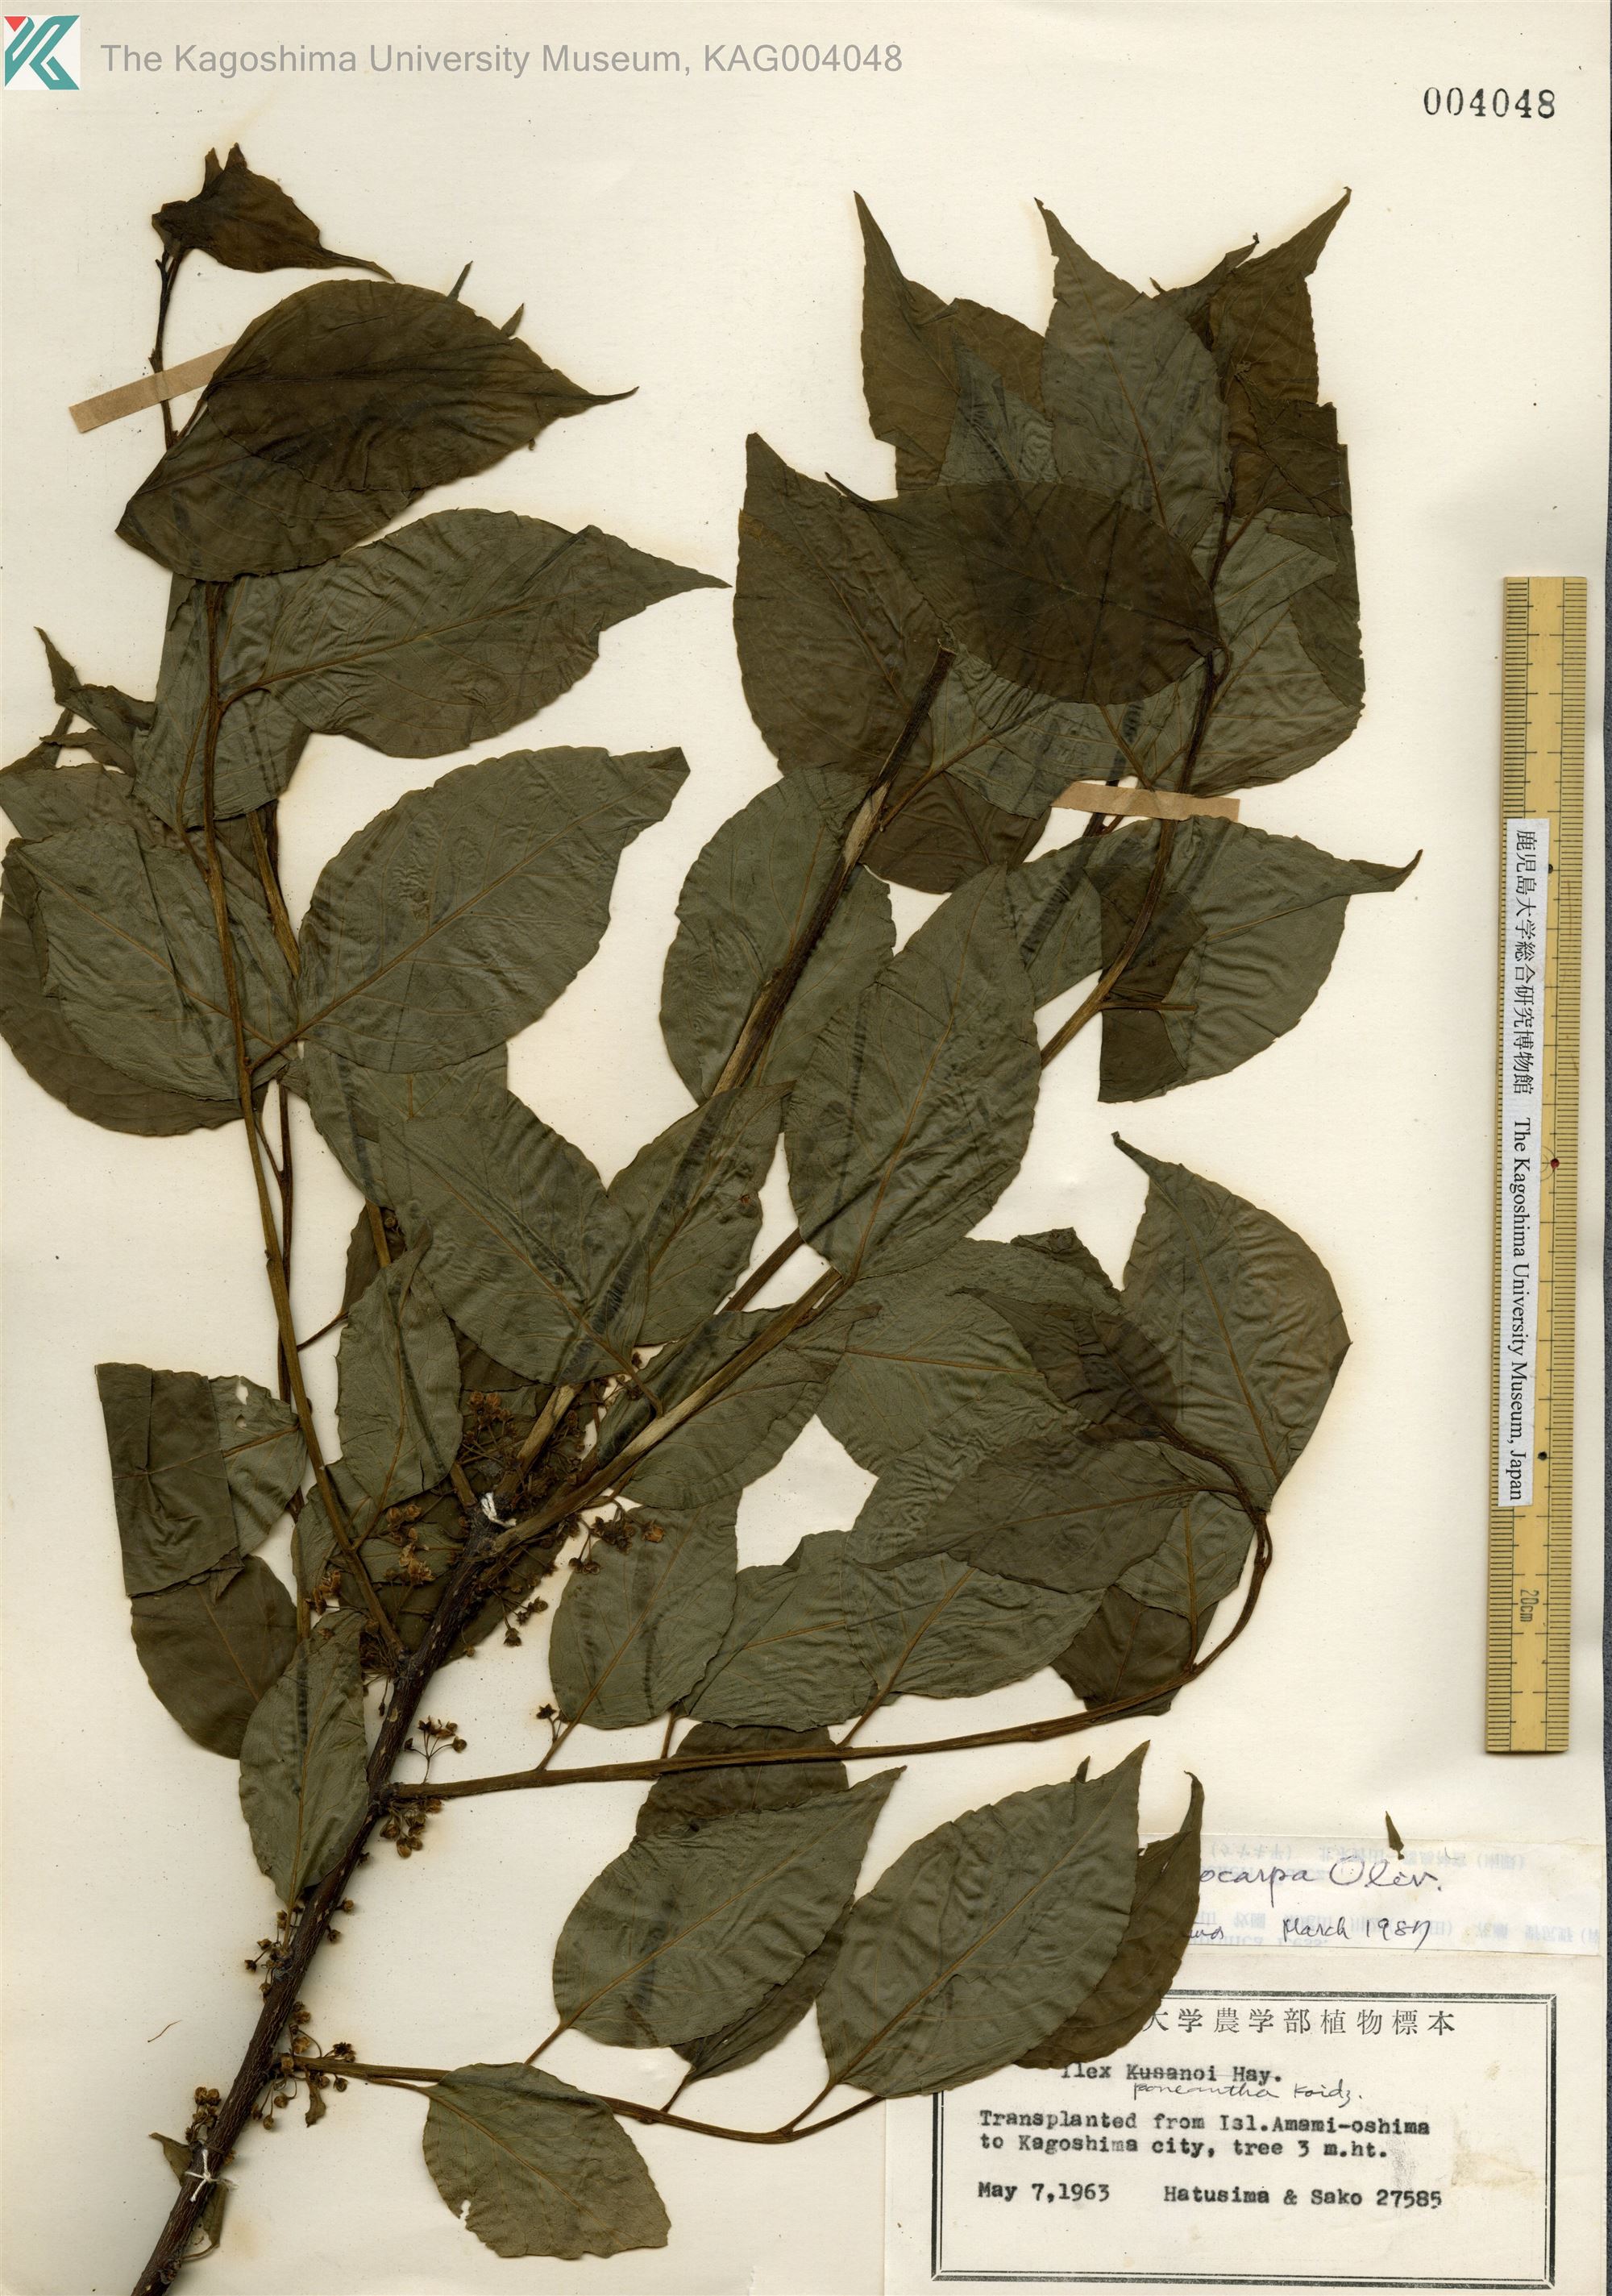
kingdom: Plantae
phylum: Tracheophyta
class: Magnoliopsida
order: Aquifoliales
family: Aquifoliaceae
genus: Ilex
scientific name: Ilex macrocarpa
